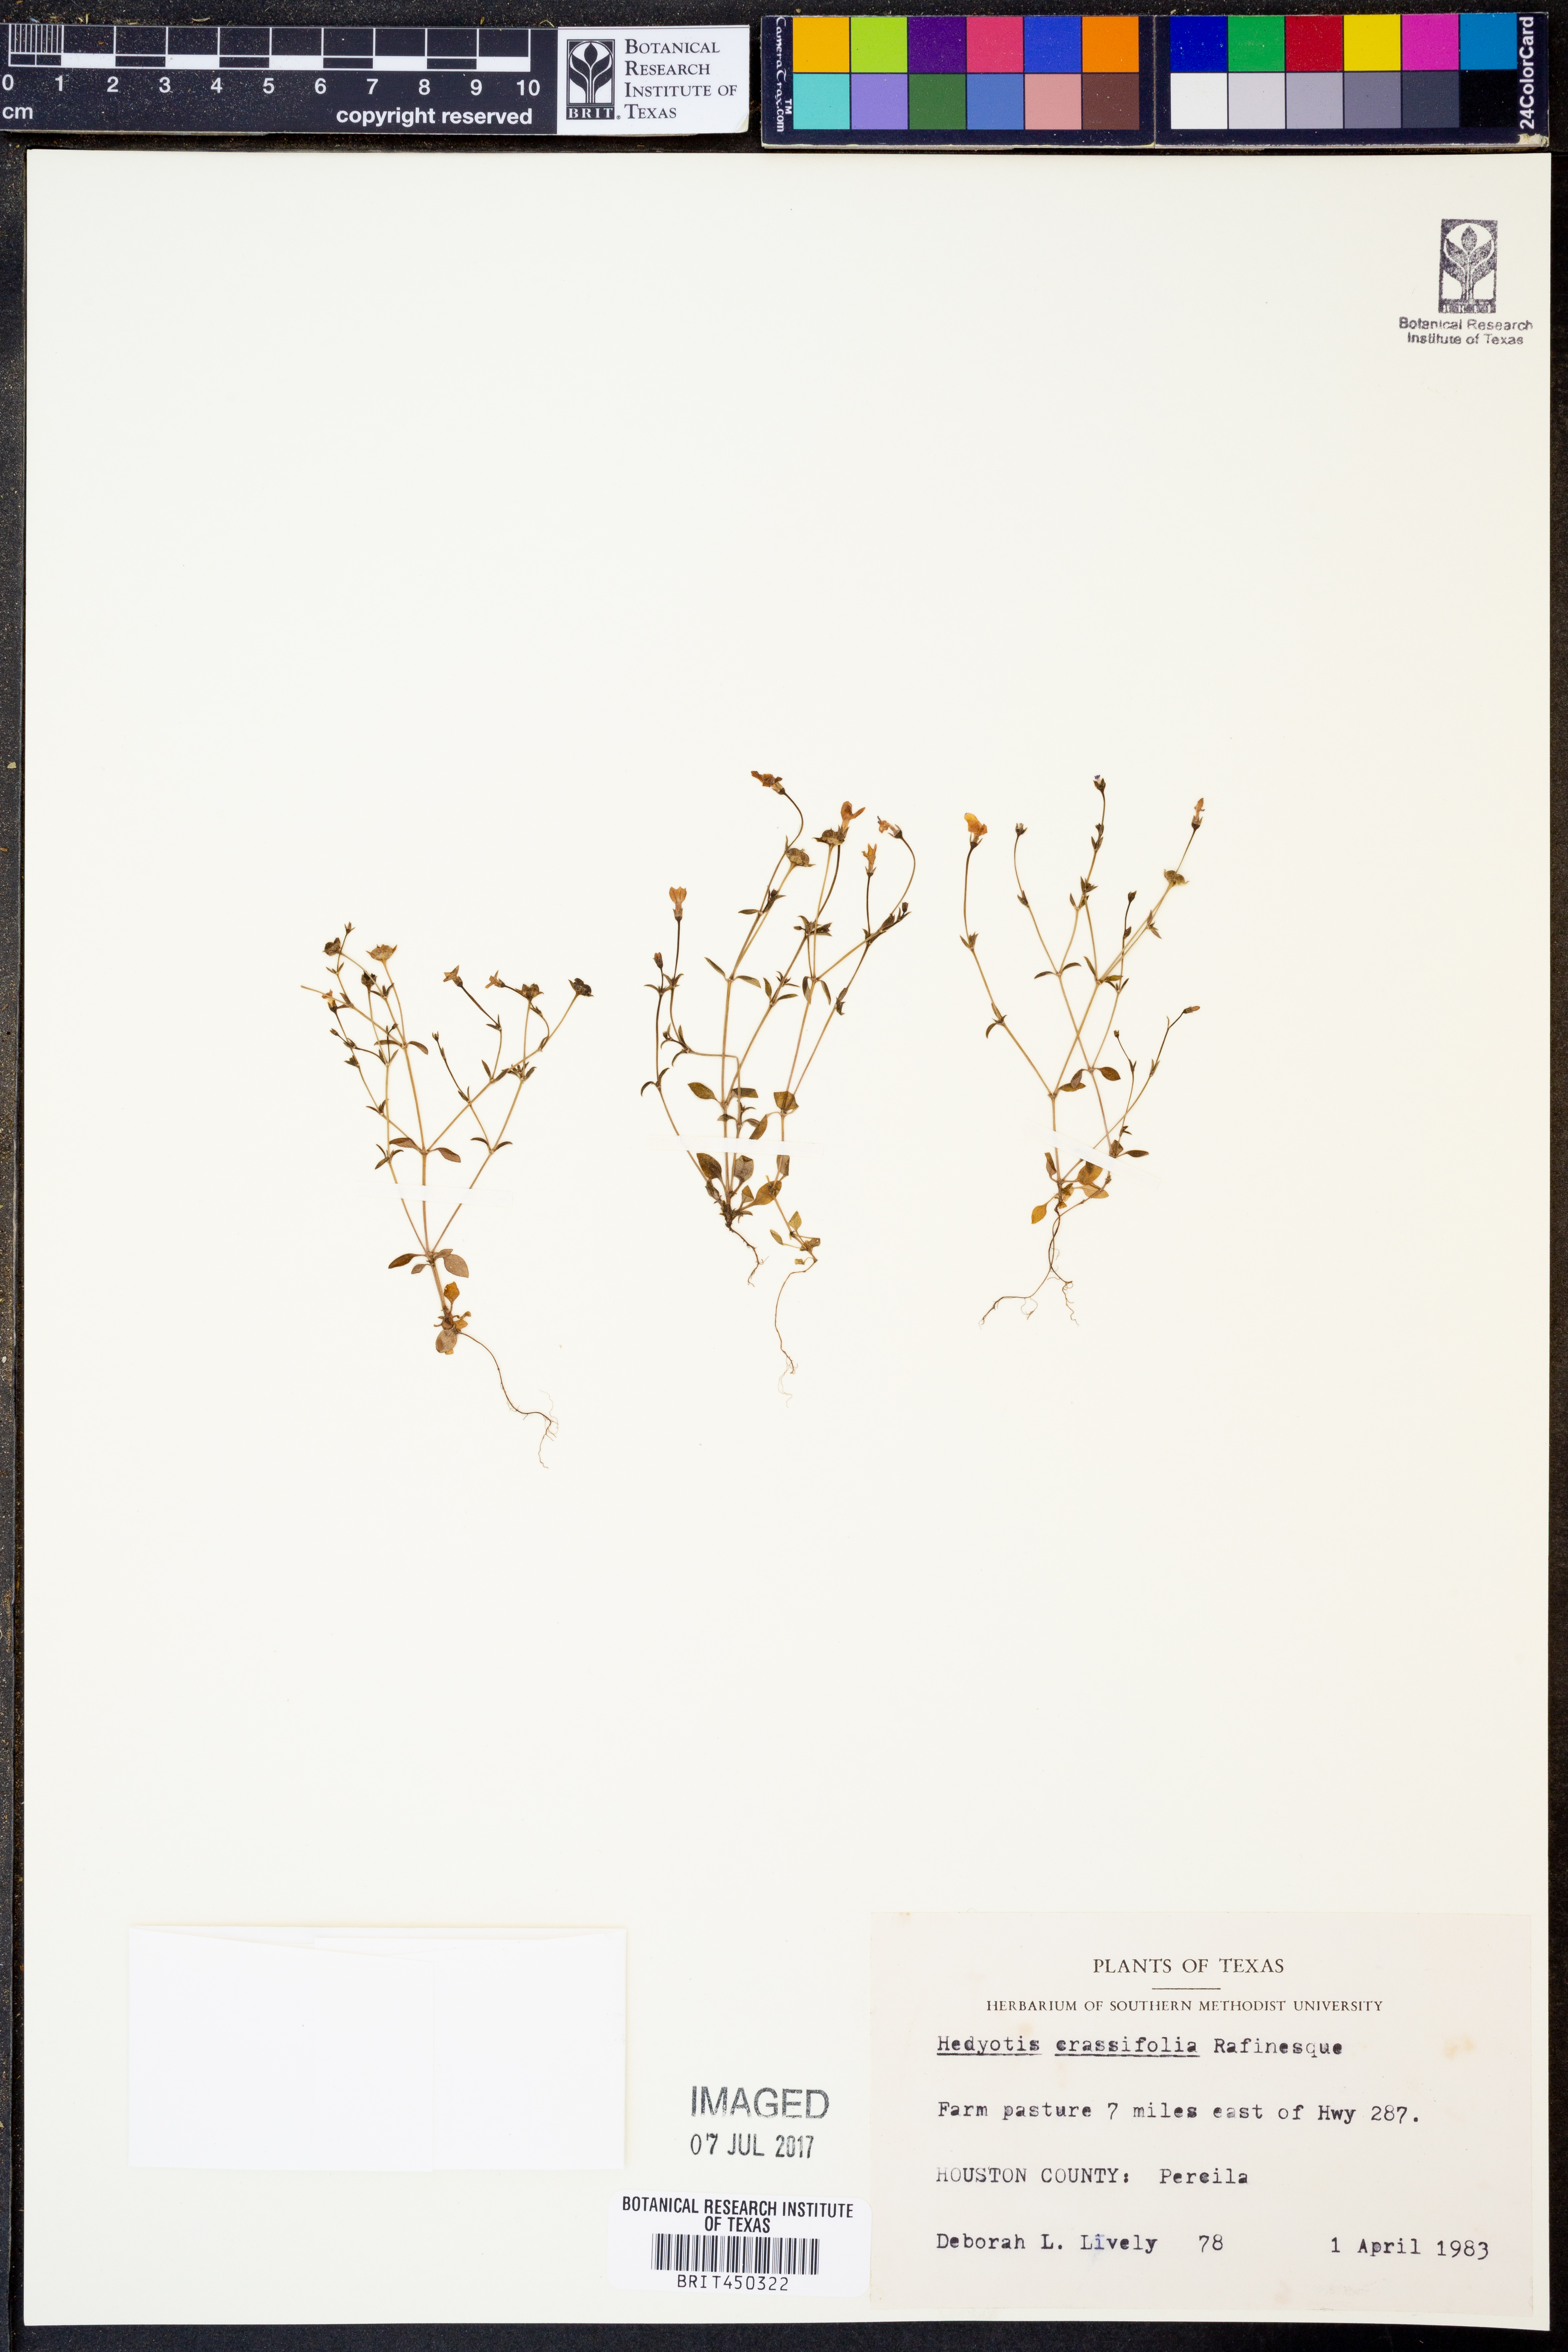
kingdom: Plantae
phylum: Tracheophyta
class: Magnoliopsida
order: Gentianales
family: Rubiaceae
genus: Houstonia
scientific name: Houstonia pusilla
